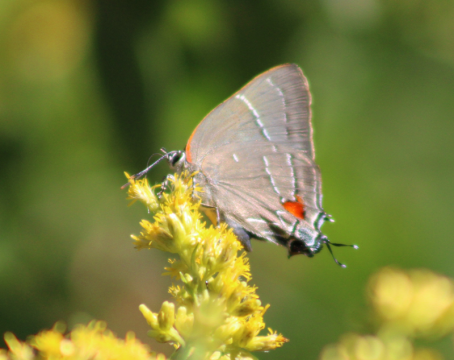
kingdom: Animalia
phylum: Arthropoda
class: Insecta
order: Lepidoptera
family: Lycaenidae
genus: Parrhasius
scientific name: Parrhasius m-album
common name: White-m Hairstreak
